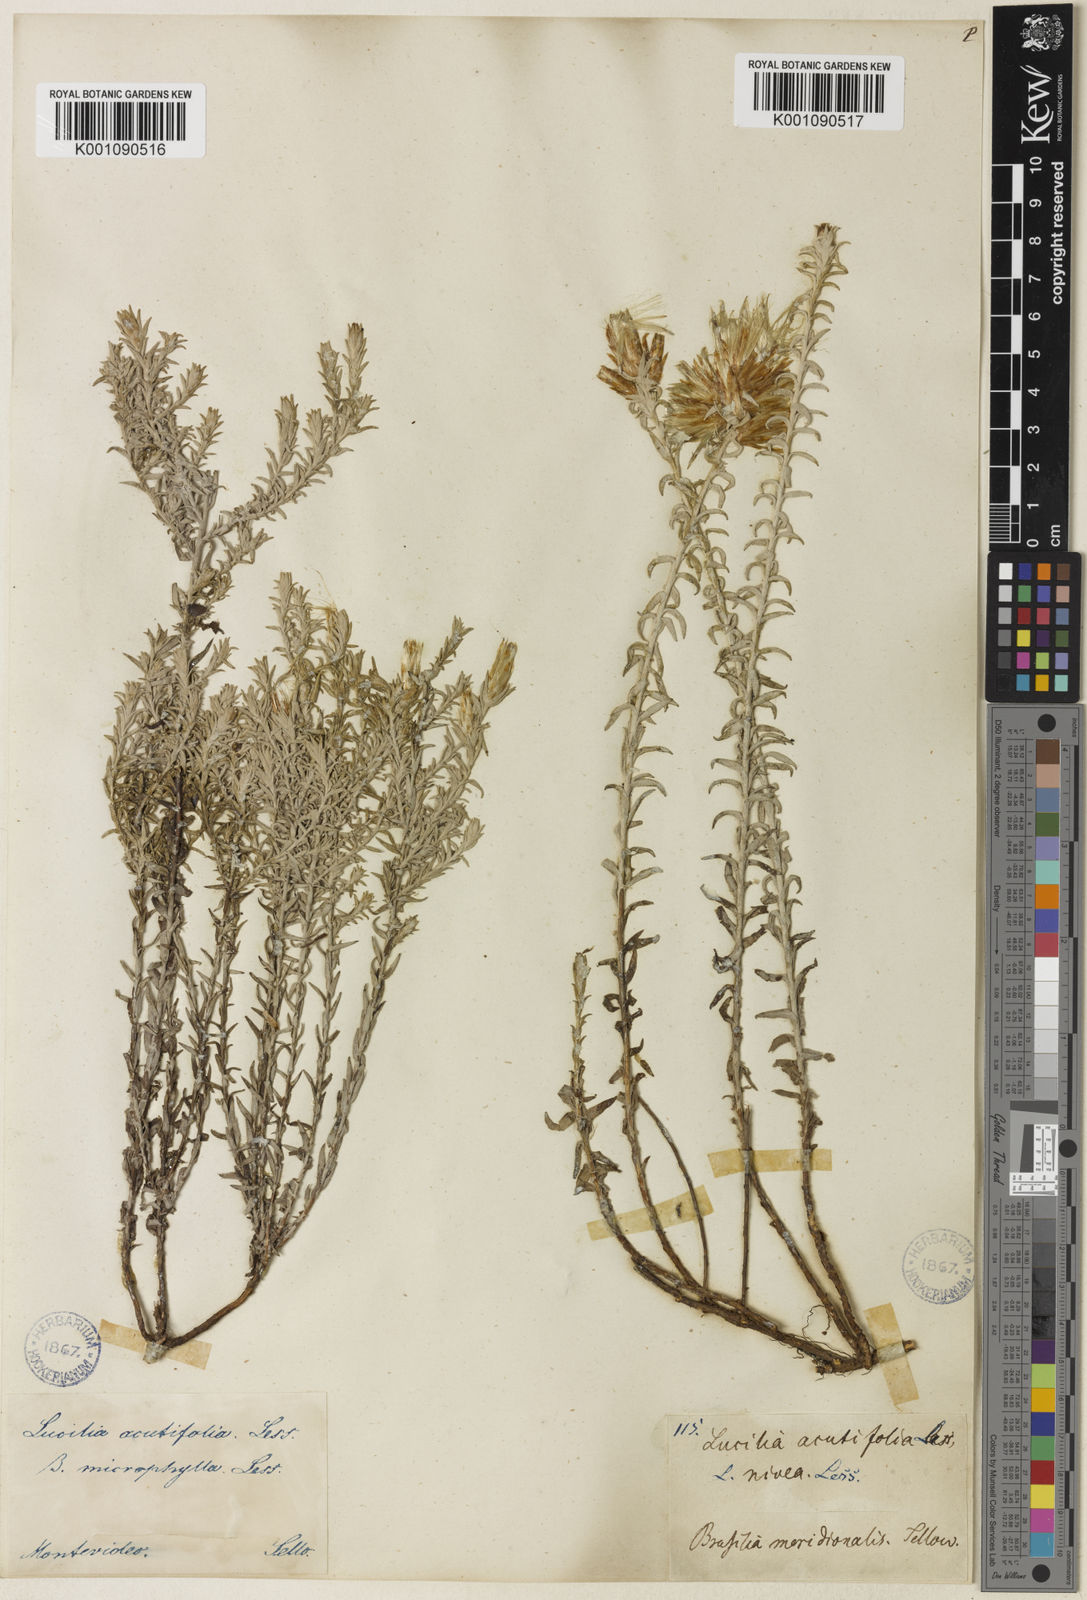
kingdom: Plantae
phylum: Tracheophyta
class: Magnoliopsida
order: Asterales
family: Asteraceae
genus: Lucilia
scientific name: Lucilia acutifolia
